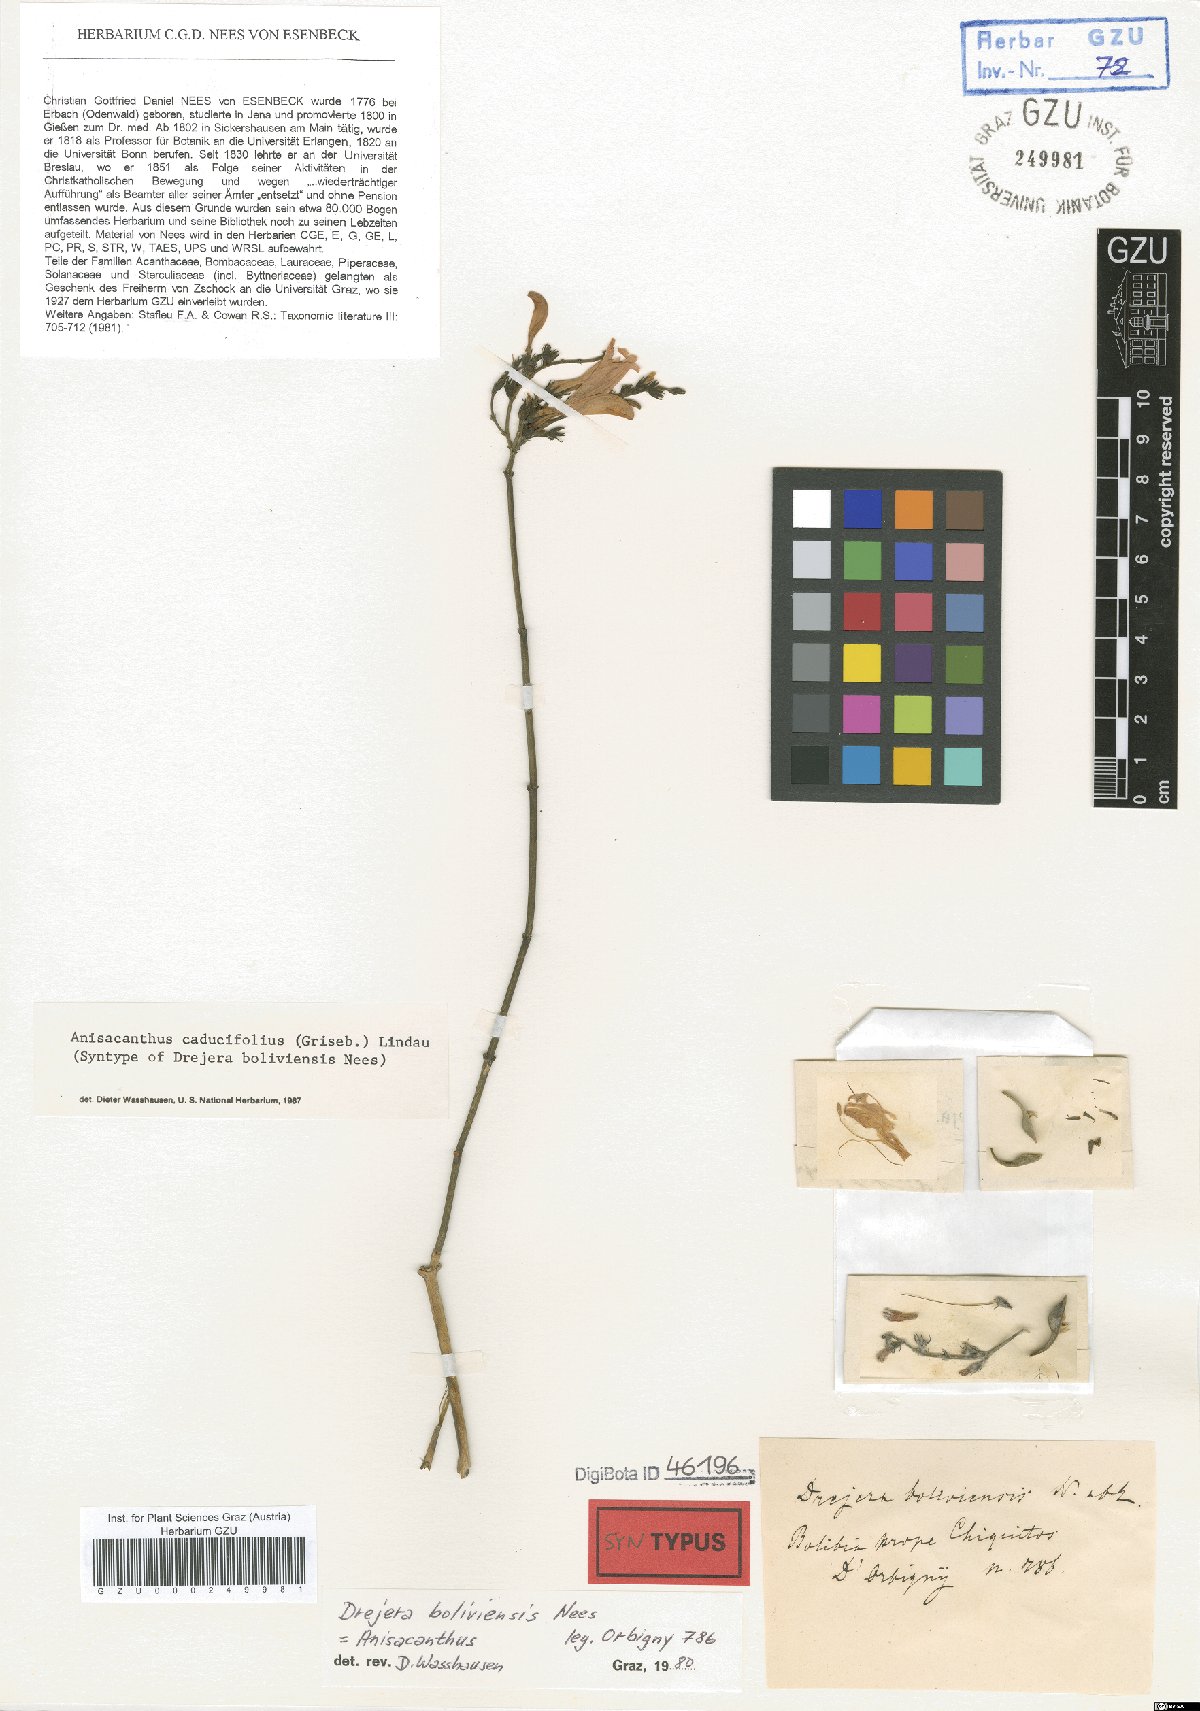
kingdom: Plantae
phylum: Tracheophyta
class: Magnoliopsida
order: Lamiales
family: Acanthaceae
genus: Thyrsacanthus
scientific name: Thyrsacanthus boliviensis
